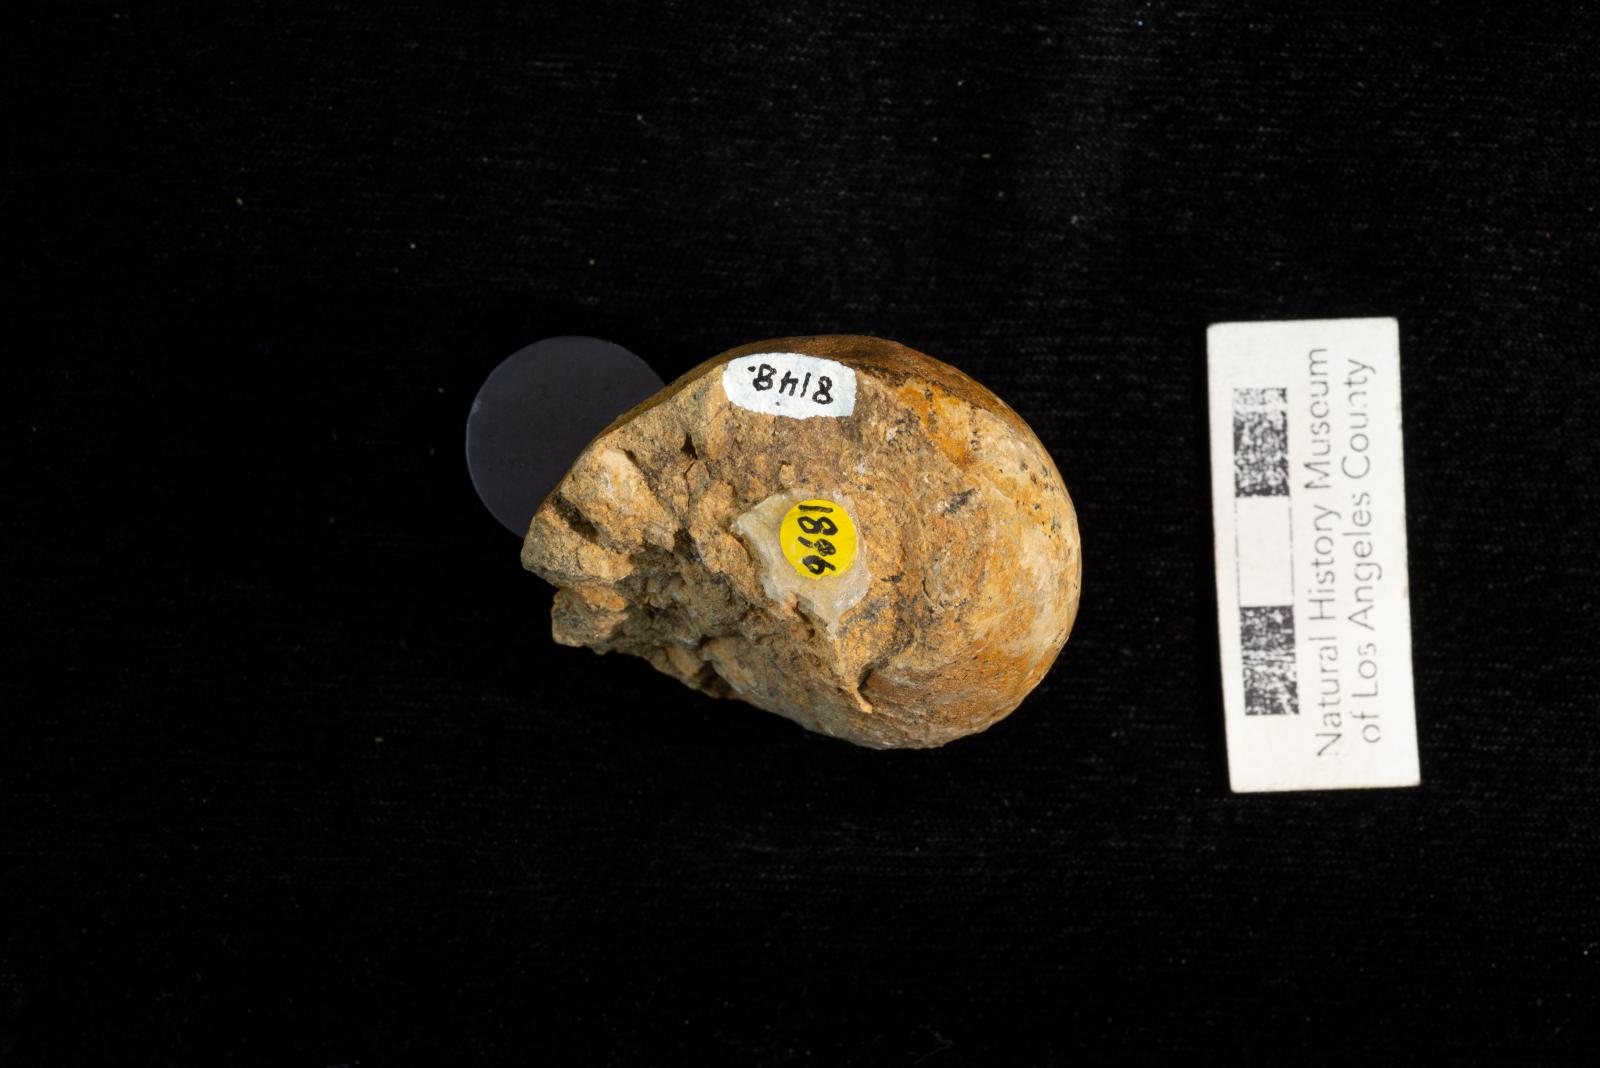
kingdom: Animalia
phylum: Mollusca
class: Gastropoda
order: Littorinimorpha
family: Ficidae
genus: Bulbificopsis
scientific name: Bulbificopsis garza
